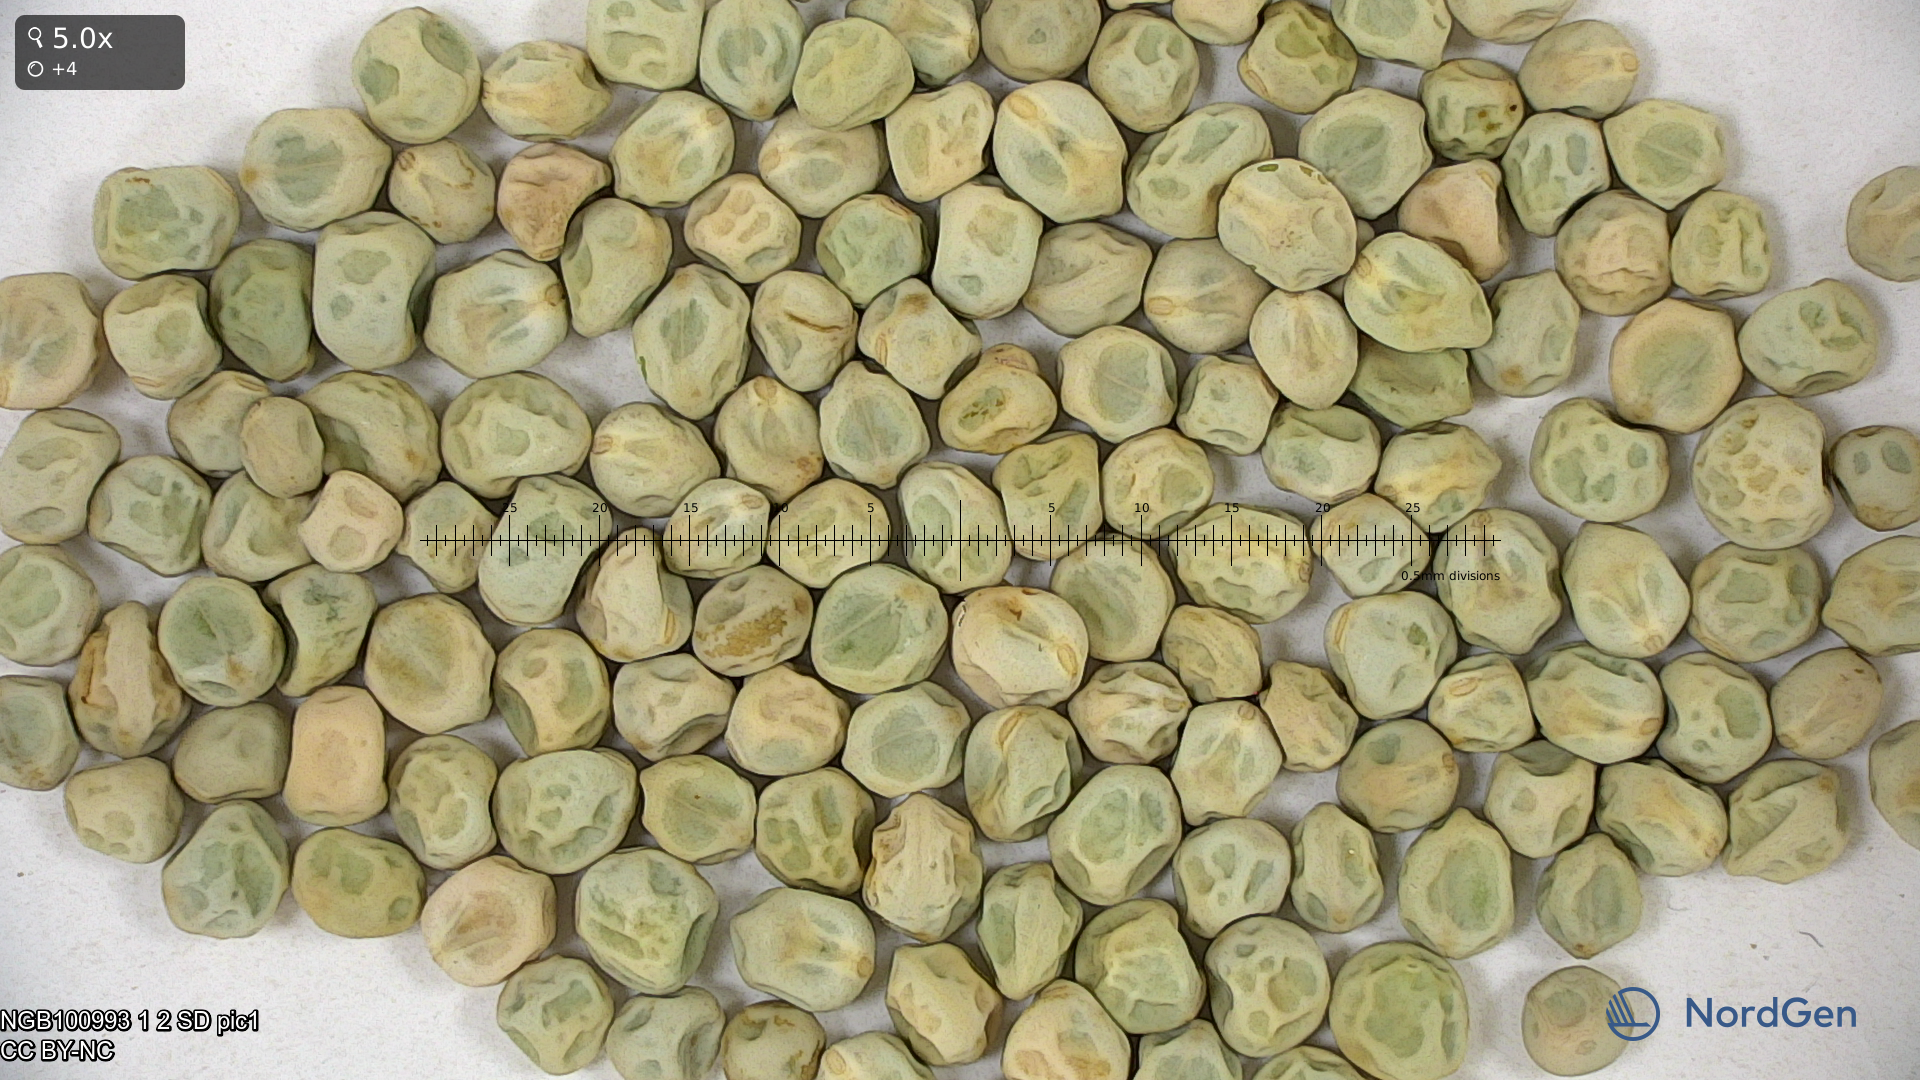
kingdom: Plantae
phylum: Tracheophyta
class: Magnoliopsida
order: Fabales
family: Fabaceae
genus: Lathyrus
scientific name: Lathyrus oleraceus
